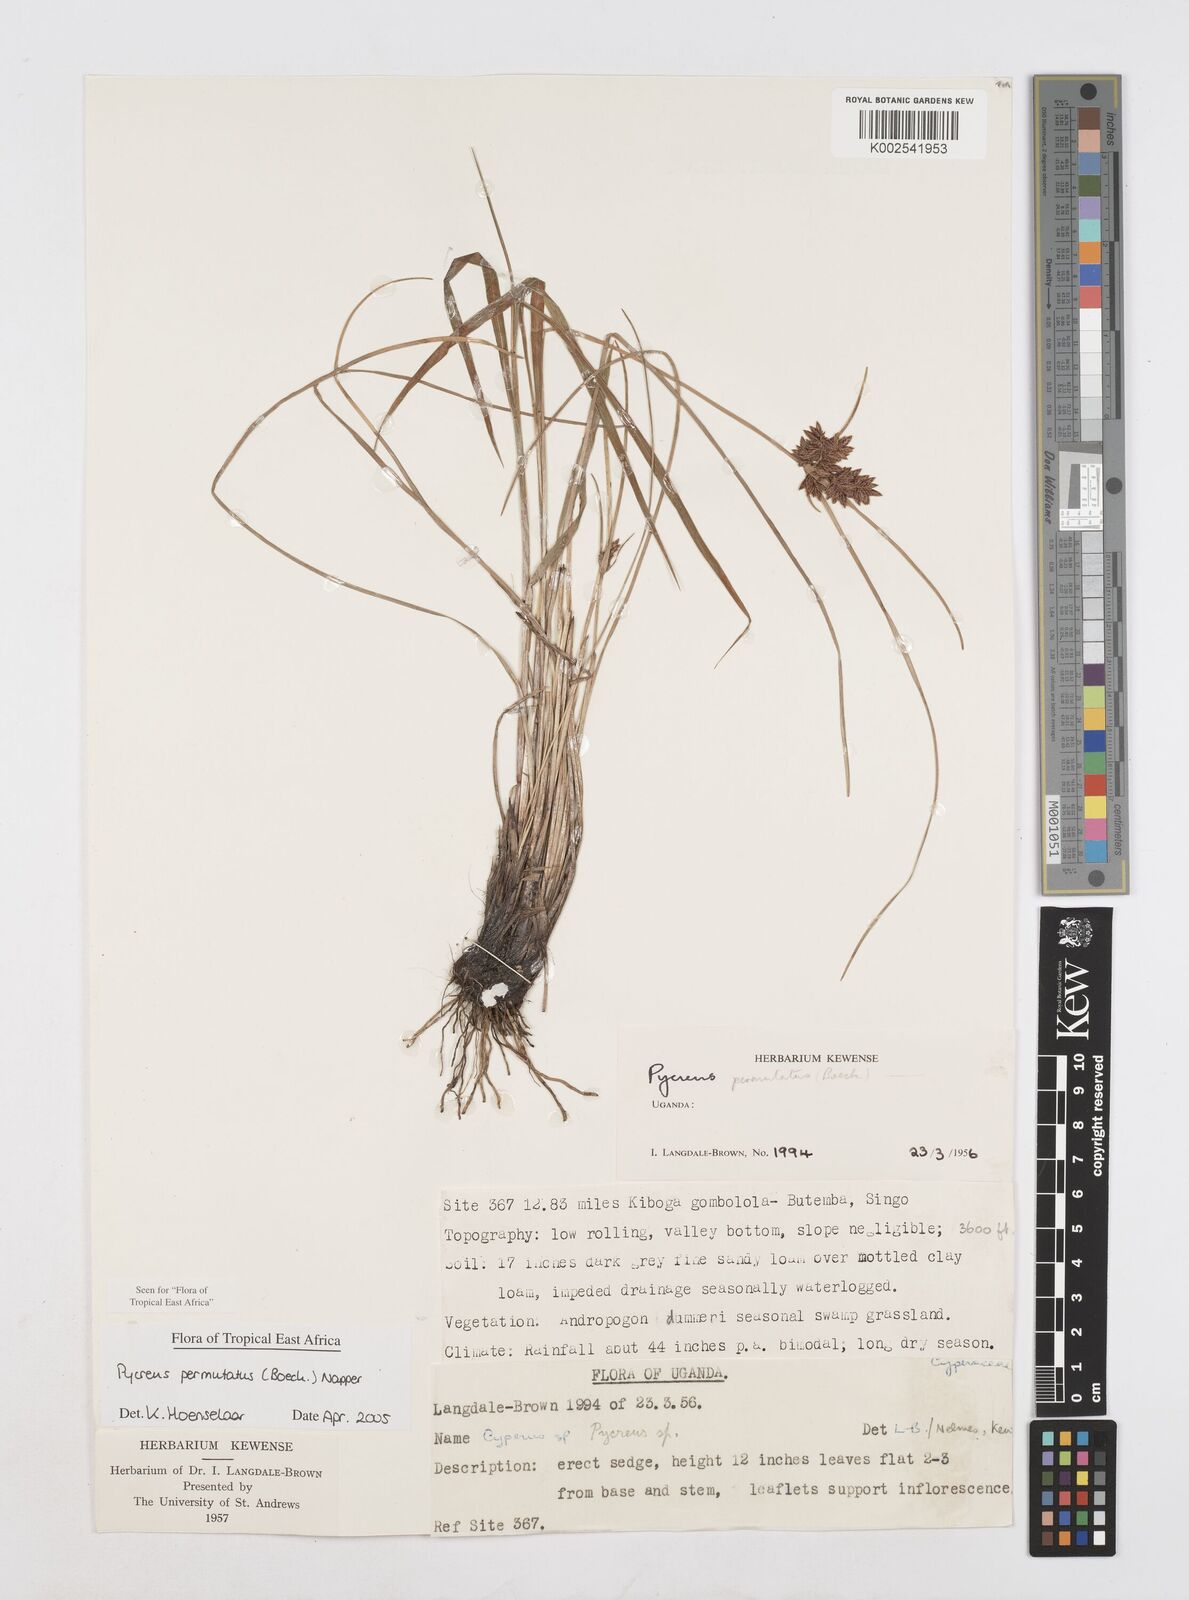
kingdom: Plantae
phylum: Tracheophyta
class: Liliopsida
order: Poales
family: Cyperaceae
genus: Cyperus
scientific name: Cyperus nigricans
